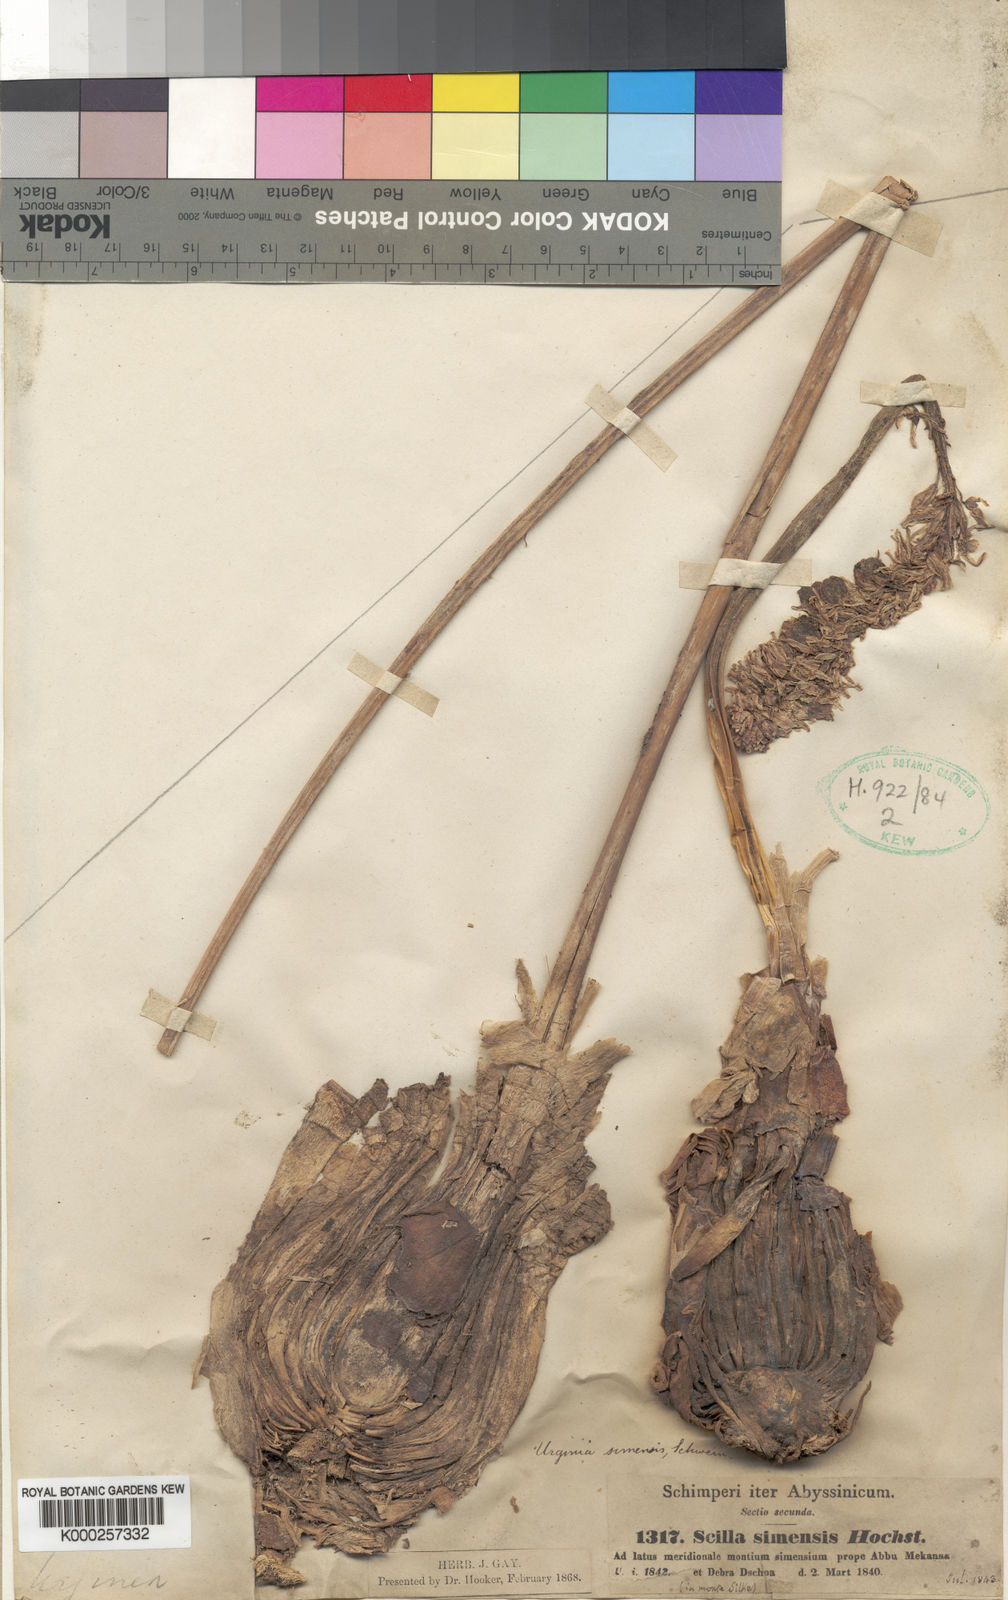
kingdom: Plantae
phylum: Tracheophyta
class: Liliopsida
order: Asparagales
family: Asparagaceae
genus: Drimia
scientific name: Drimia simensis
